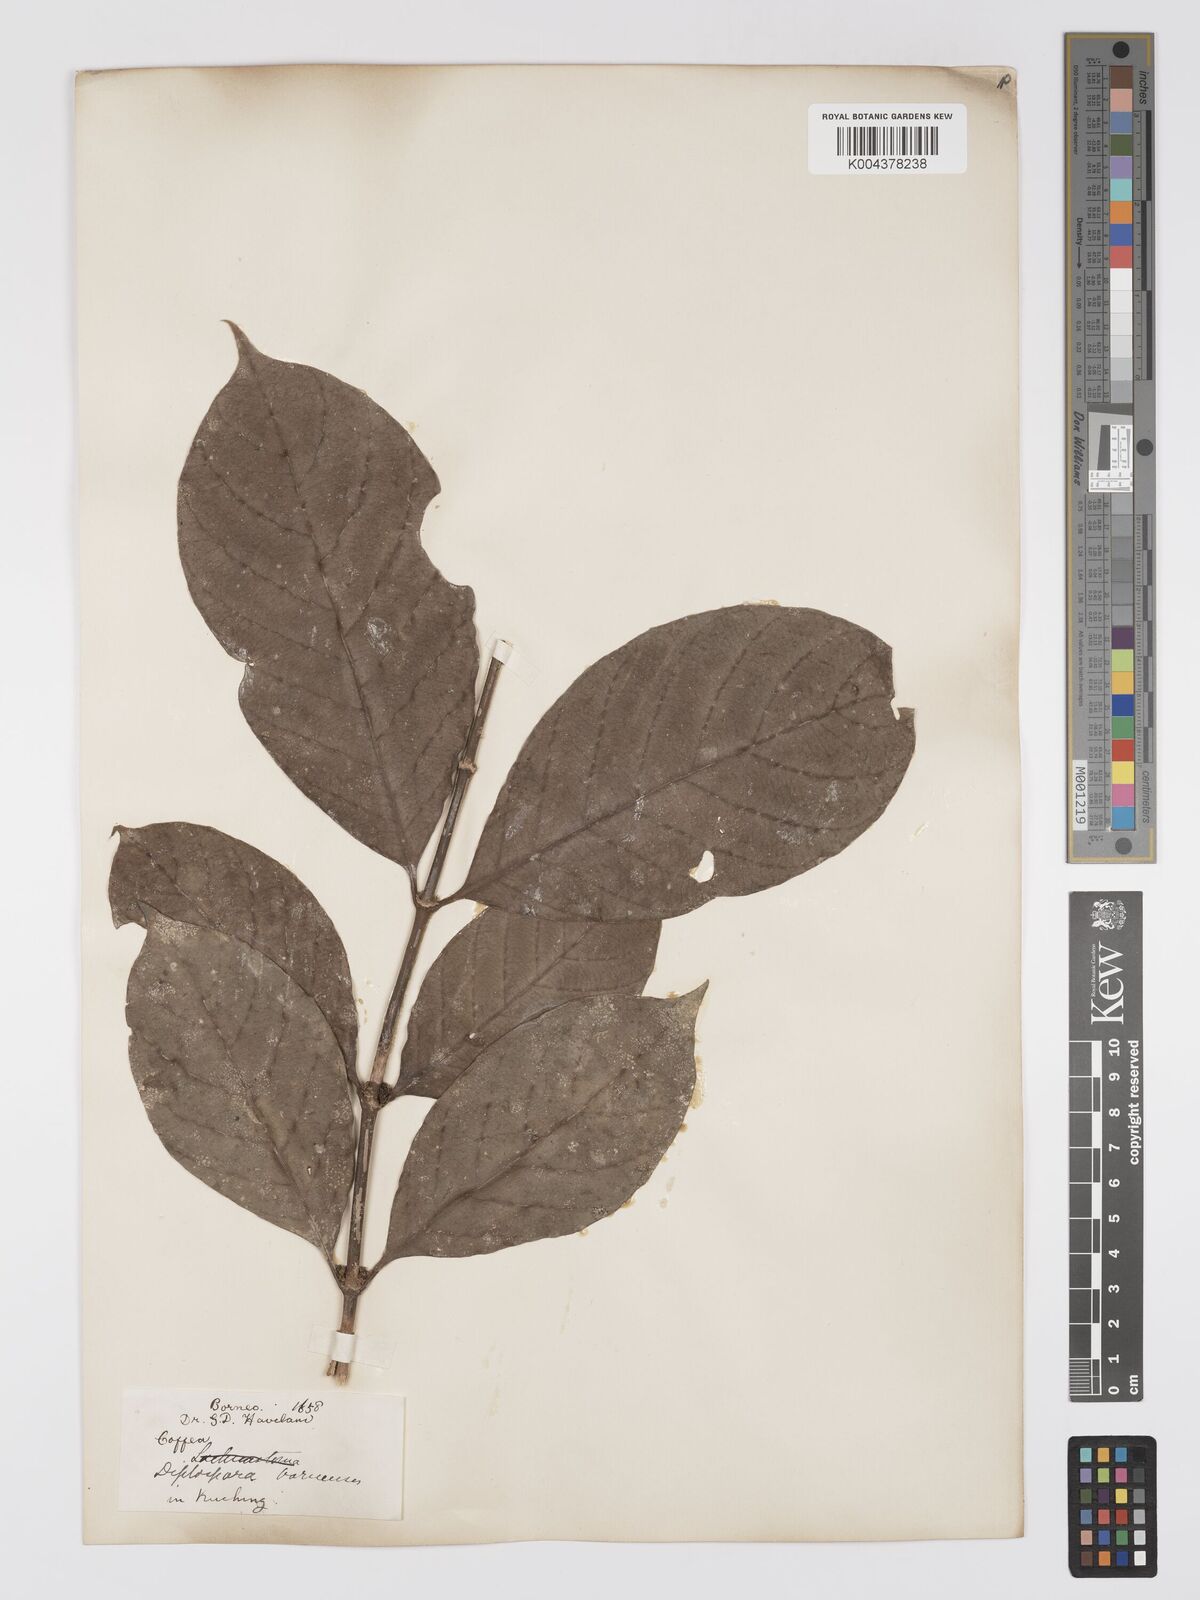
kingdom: Plantae
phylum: Tracheophyta
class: Magnoliopsida
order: Gentianales
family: Rubiaceae
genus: Diplospora
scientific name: Diplospora
